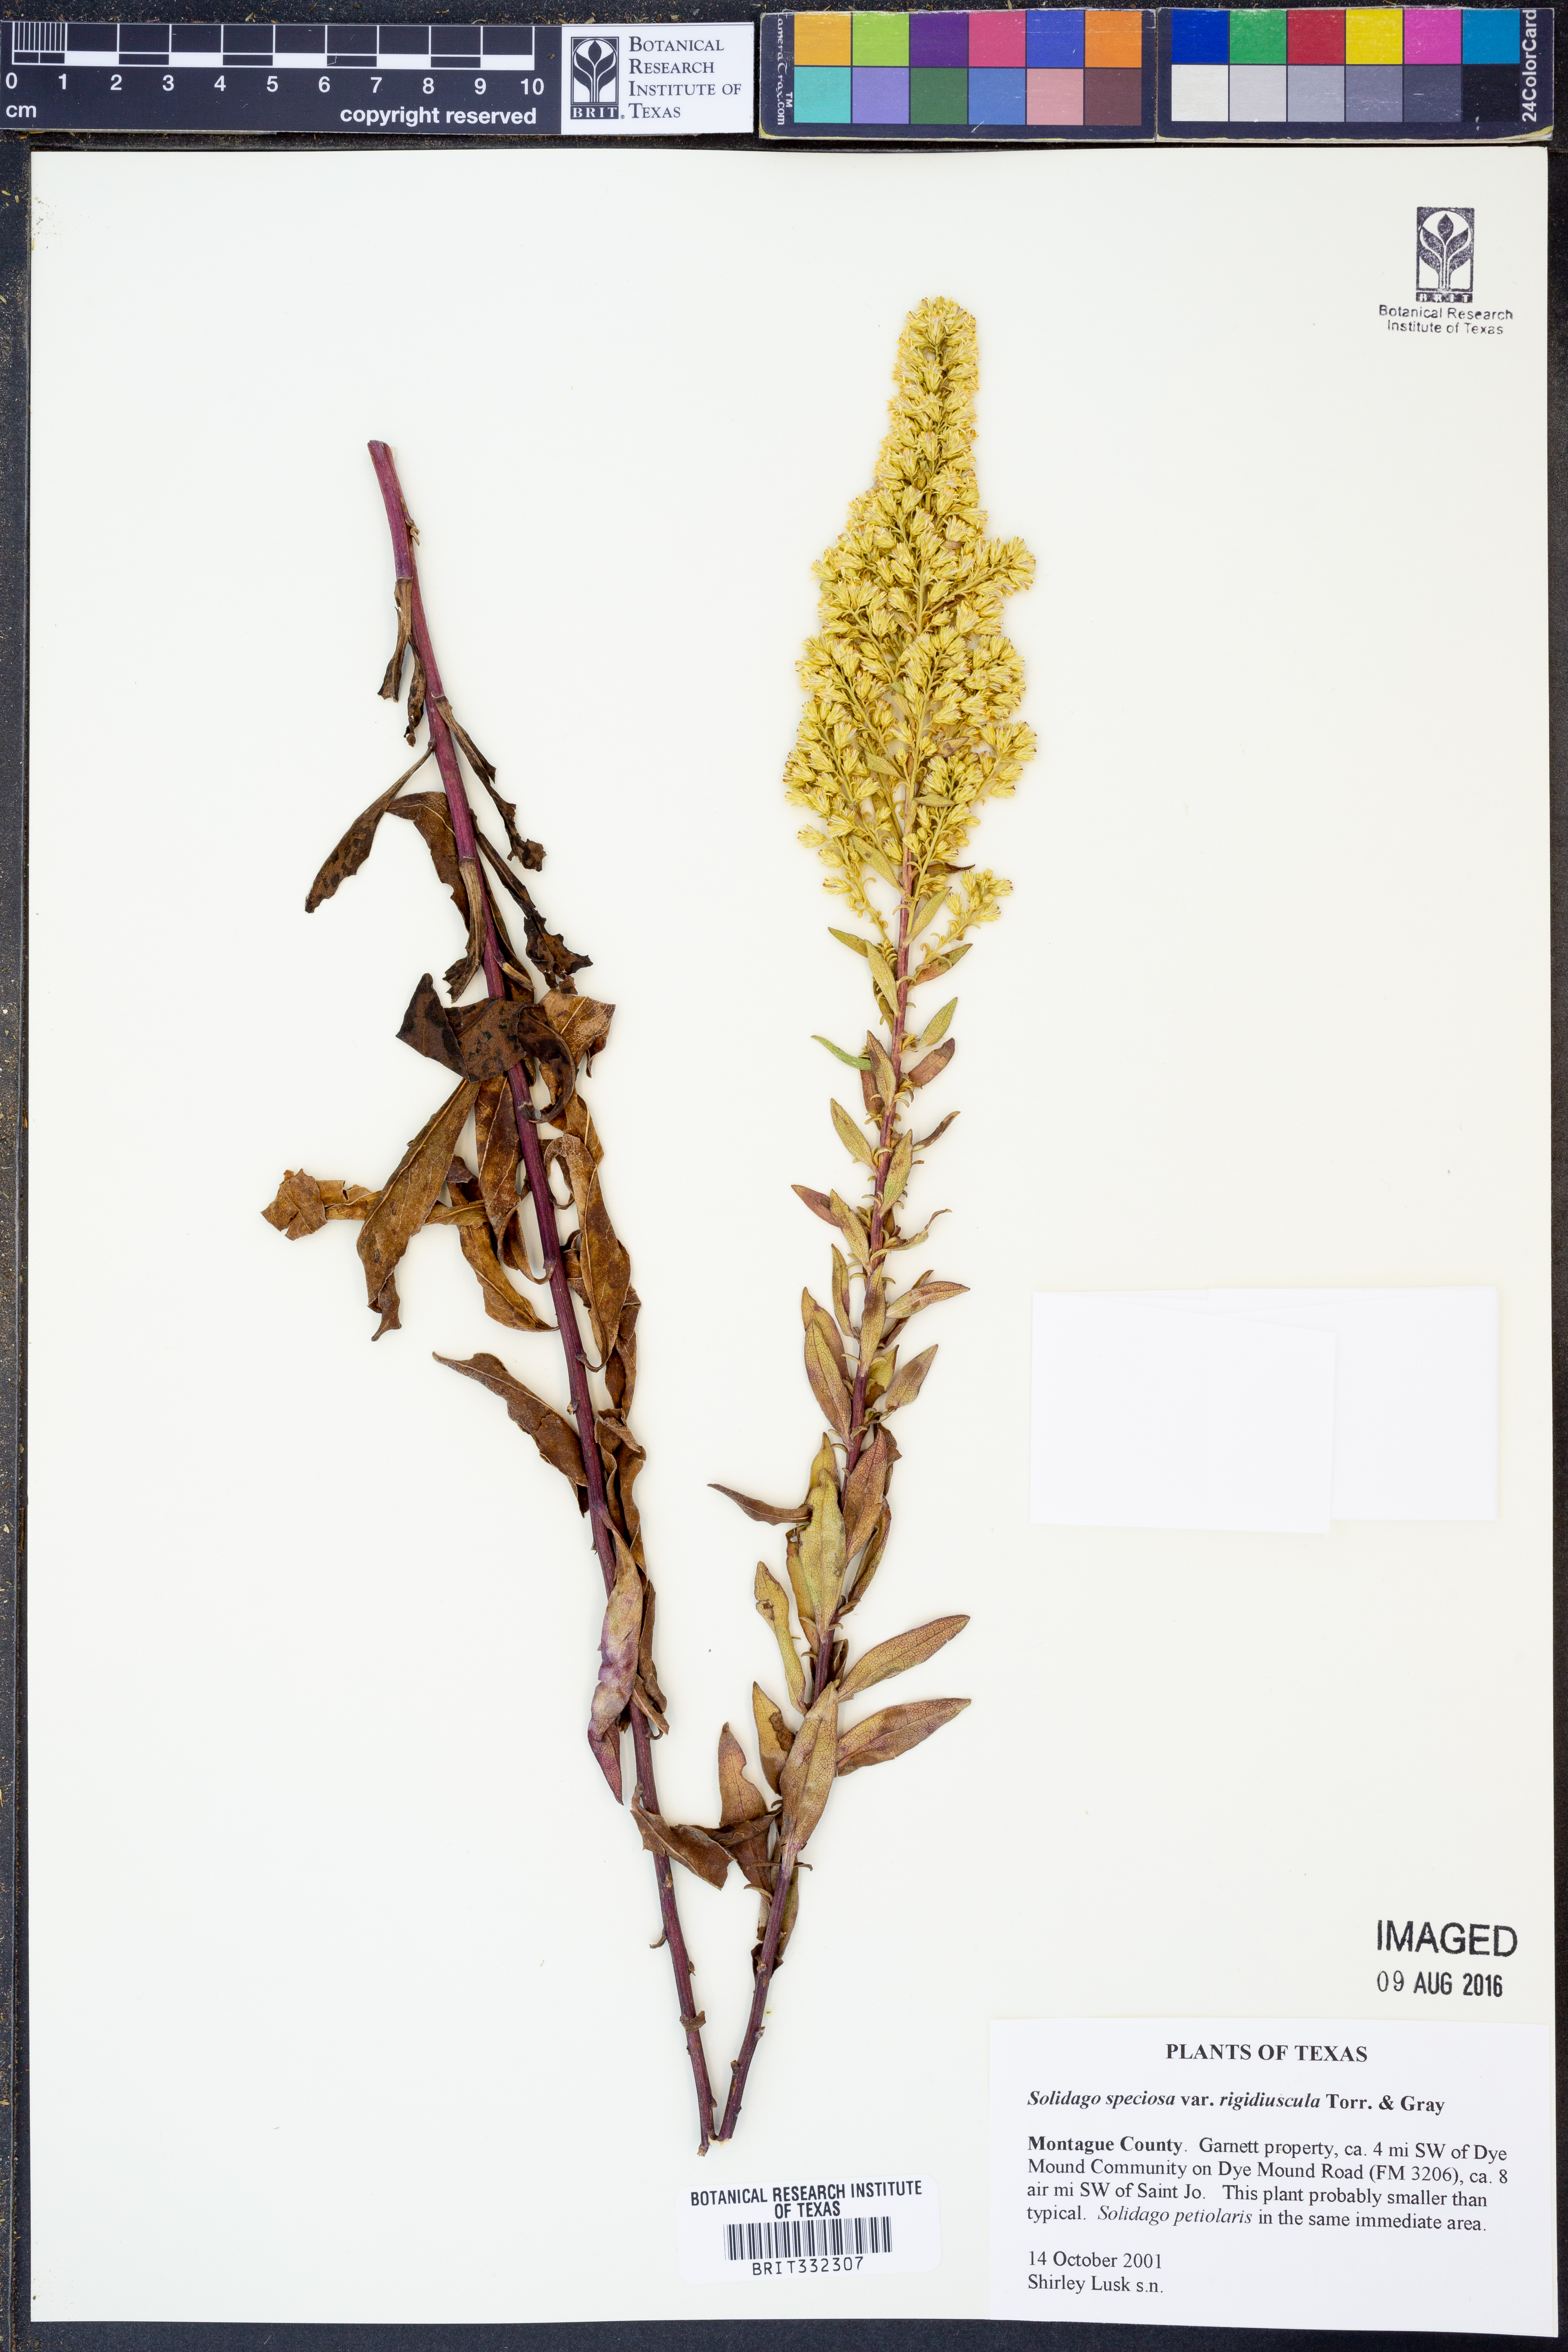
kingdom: Plantae
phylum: Tracheophyta
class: Magnoliopsida
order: Asterales
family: Asteraceae
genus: Solidago
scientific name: Solidago rigidiuscula
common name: Stiff-leaved showy goldenrod
